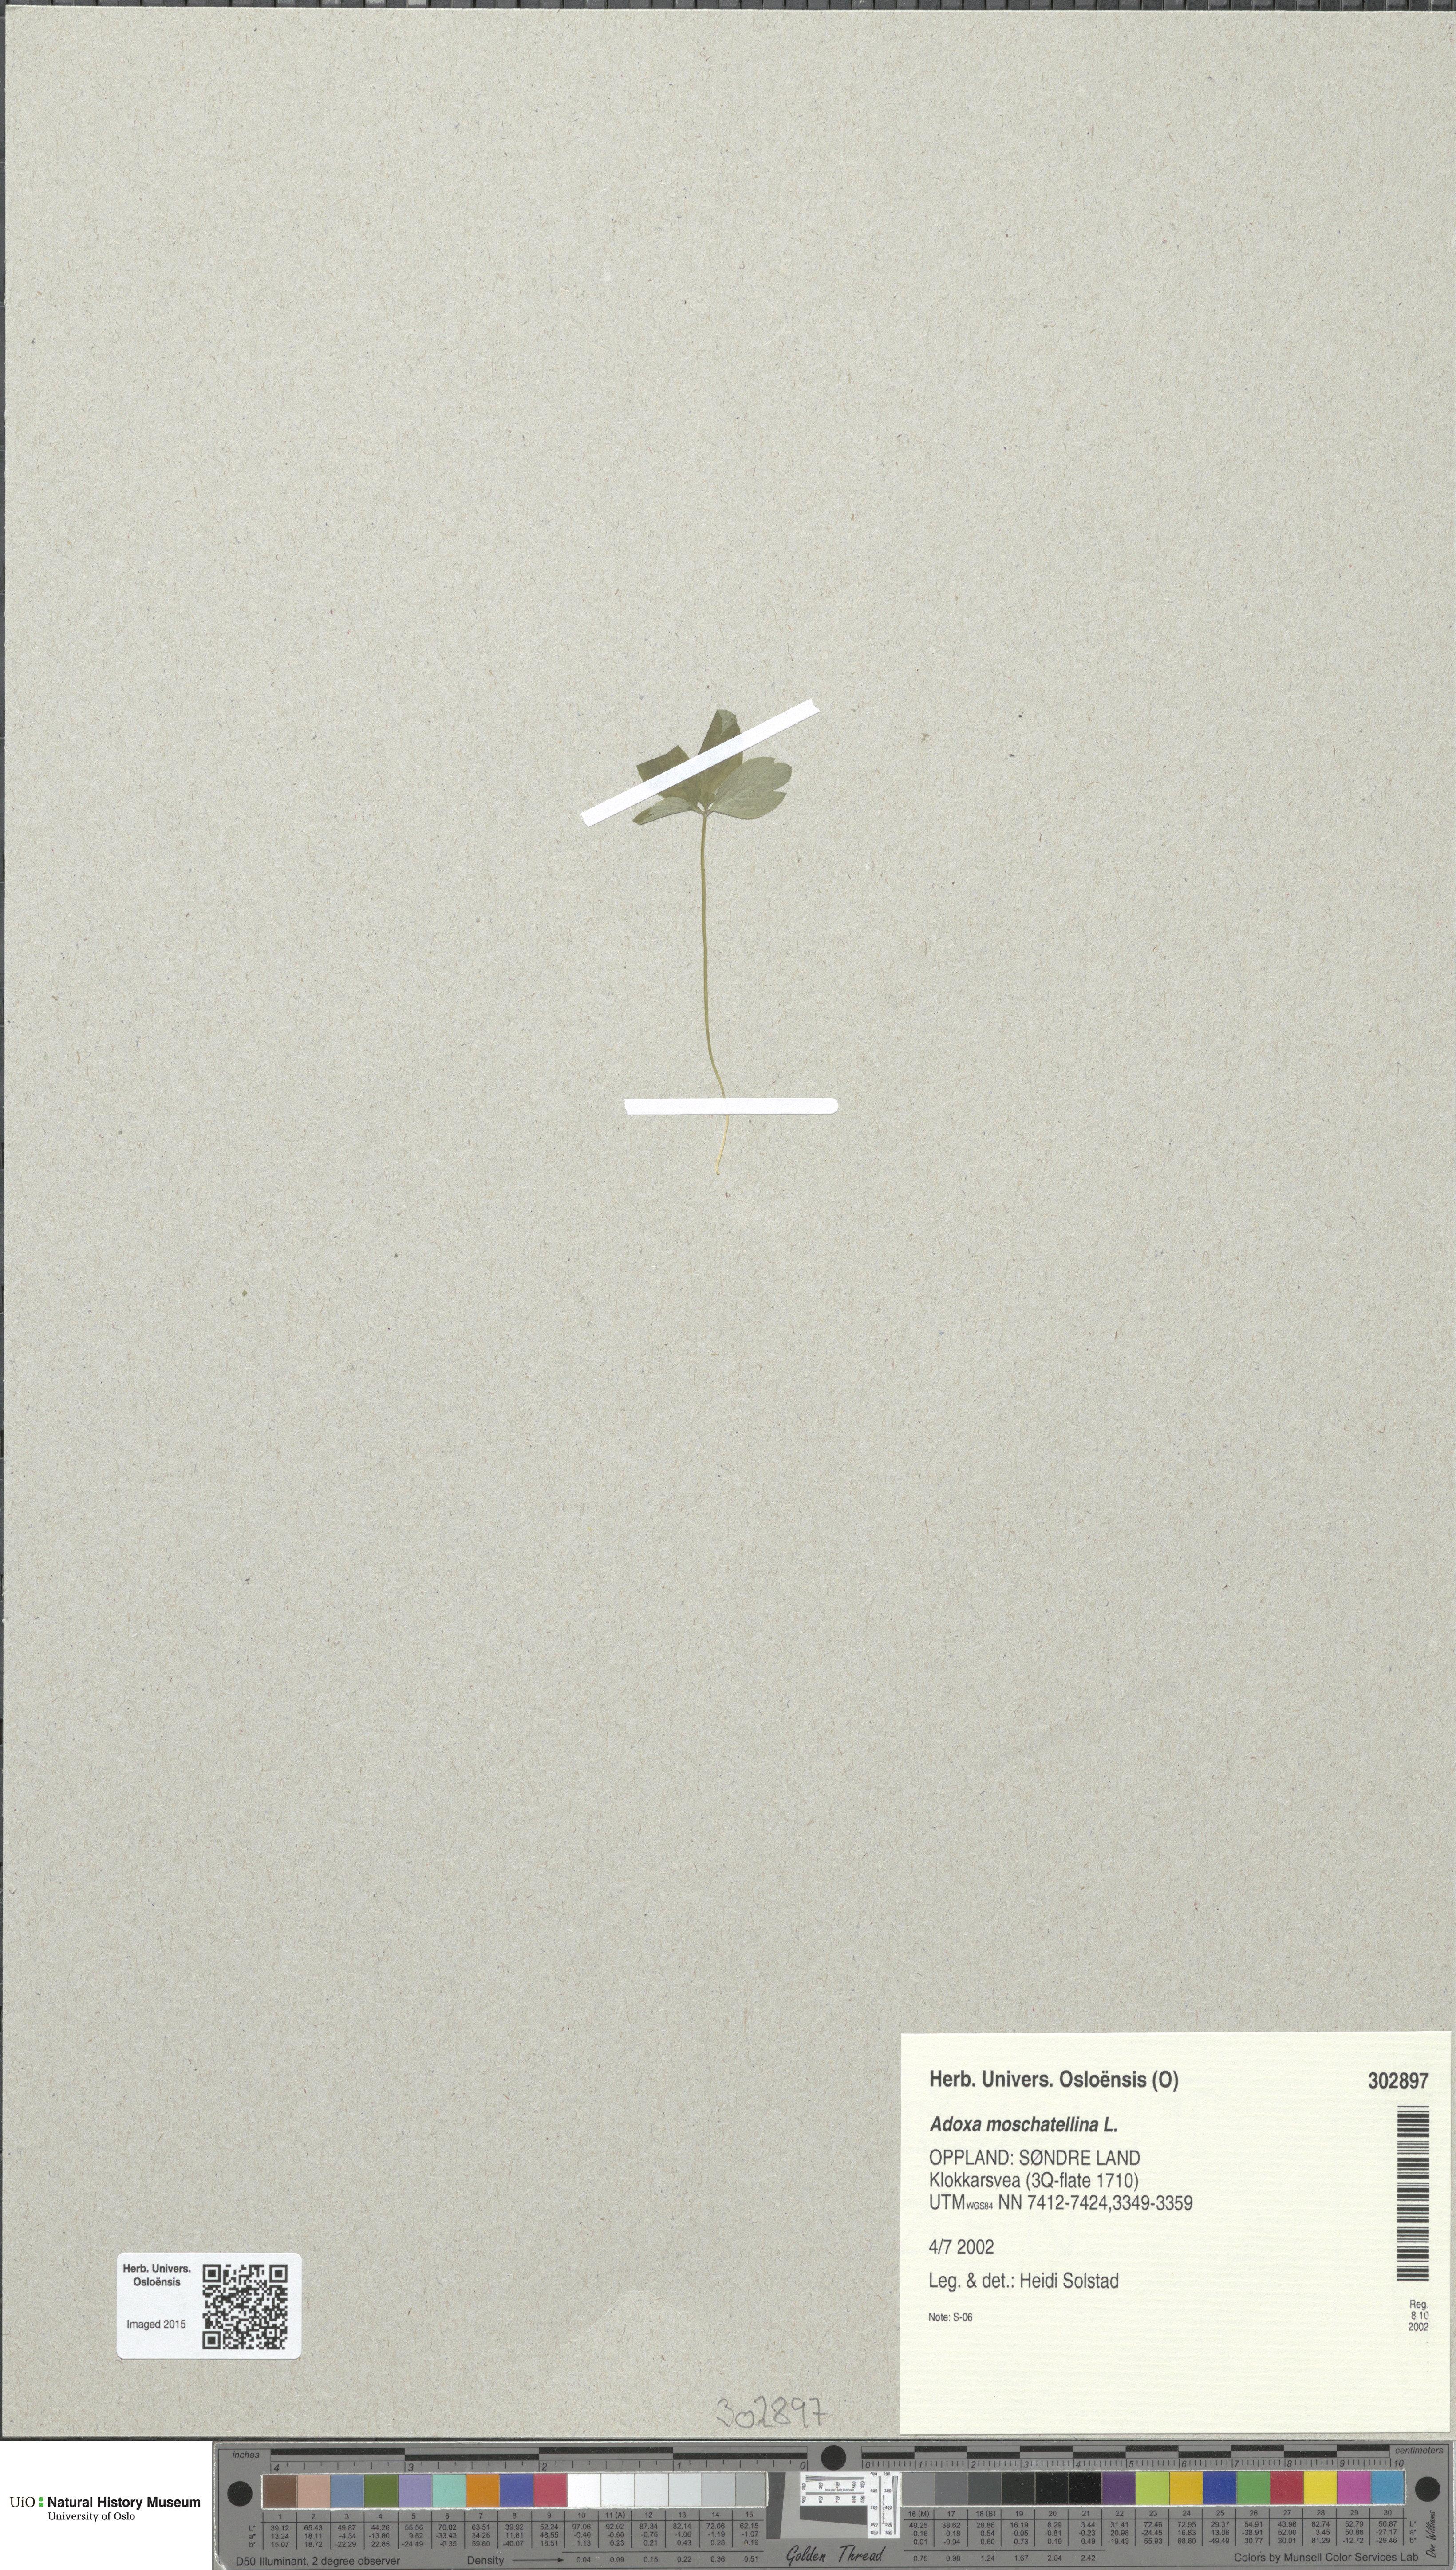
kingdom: Plantae
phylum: Tracheophyta
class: Magnoliopsida
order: Dipsacales
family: Viburnaceae
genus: Adoxa
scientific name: Adoxa moschatellina
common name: Moschatel
